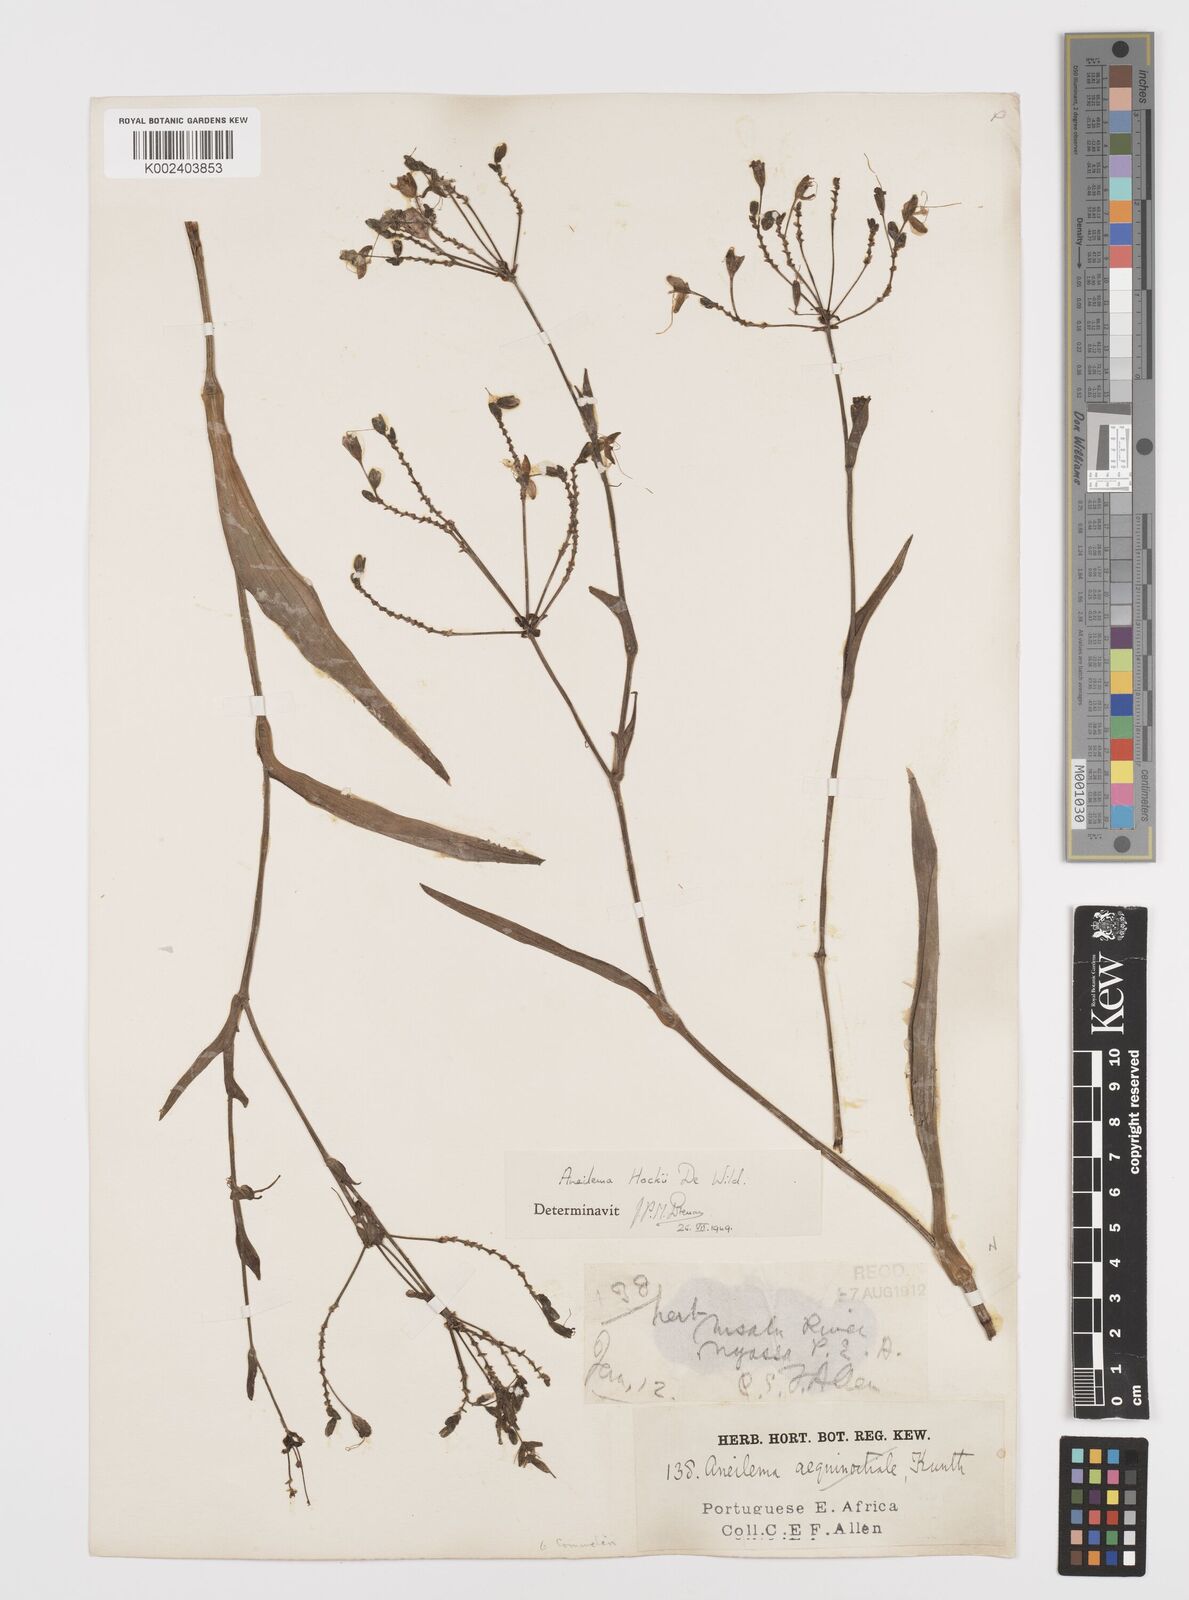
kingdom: Plantae
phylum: Tracheophyta
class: Liliopsida
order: Commelinales
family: Commelinaceae
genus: Aneilema
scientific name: Aneilema hockii
